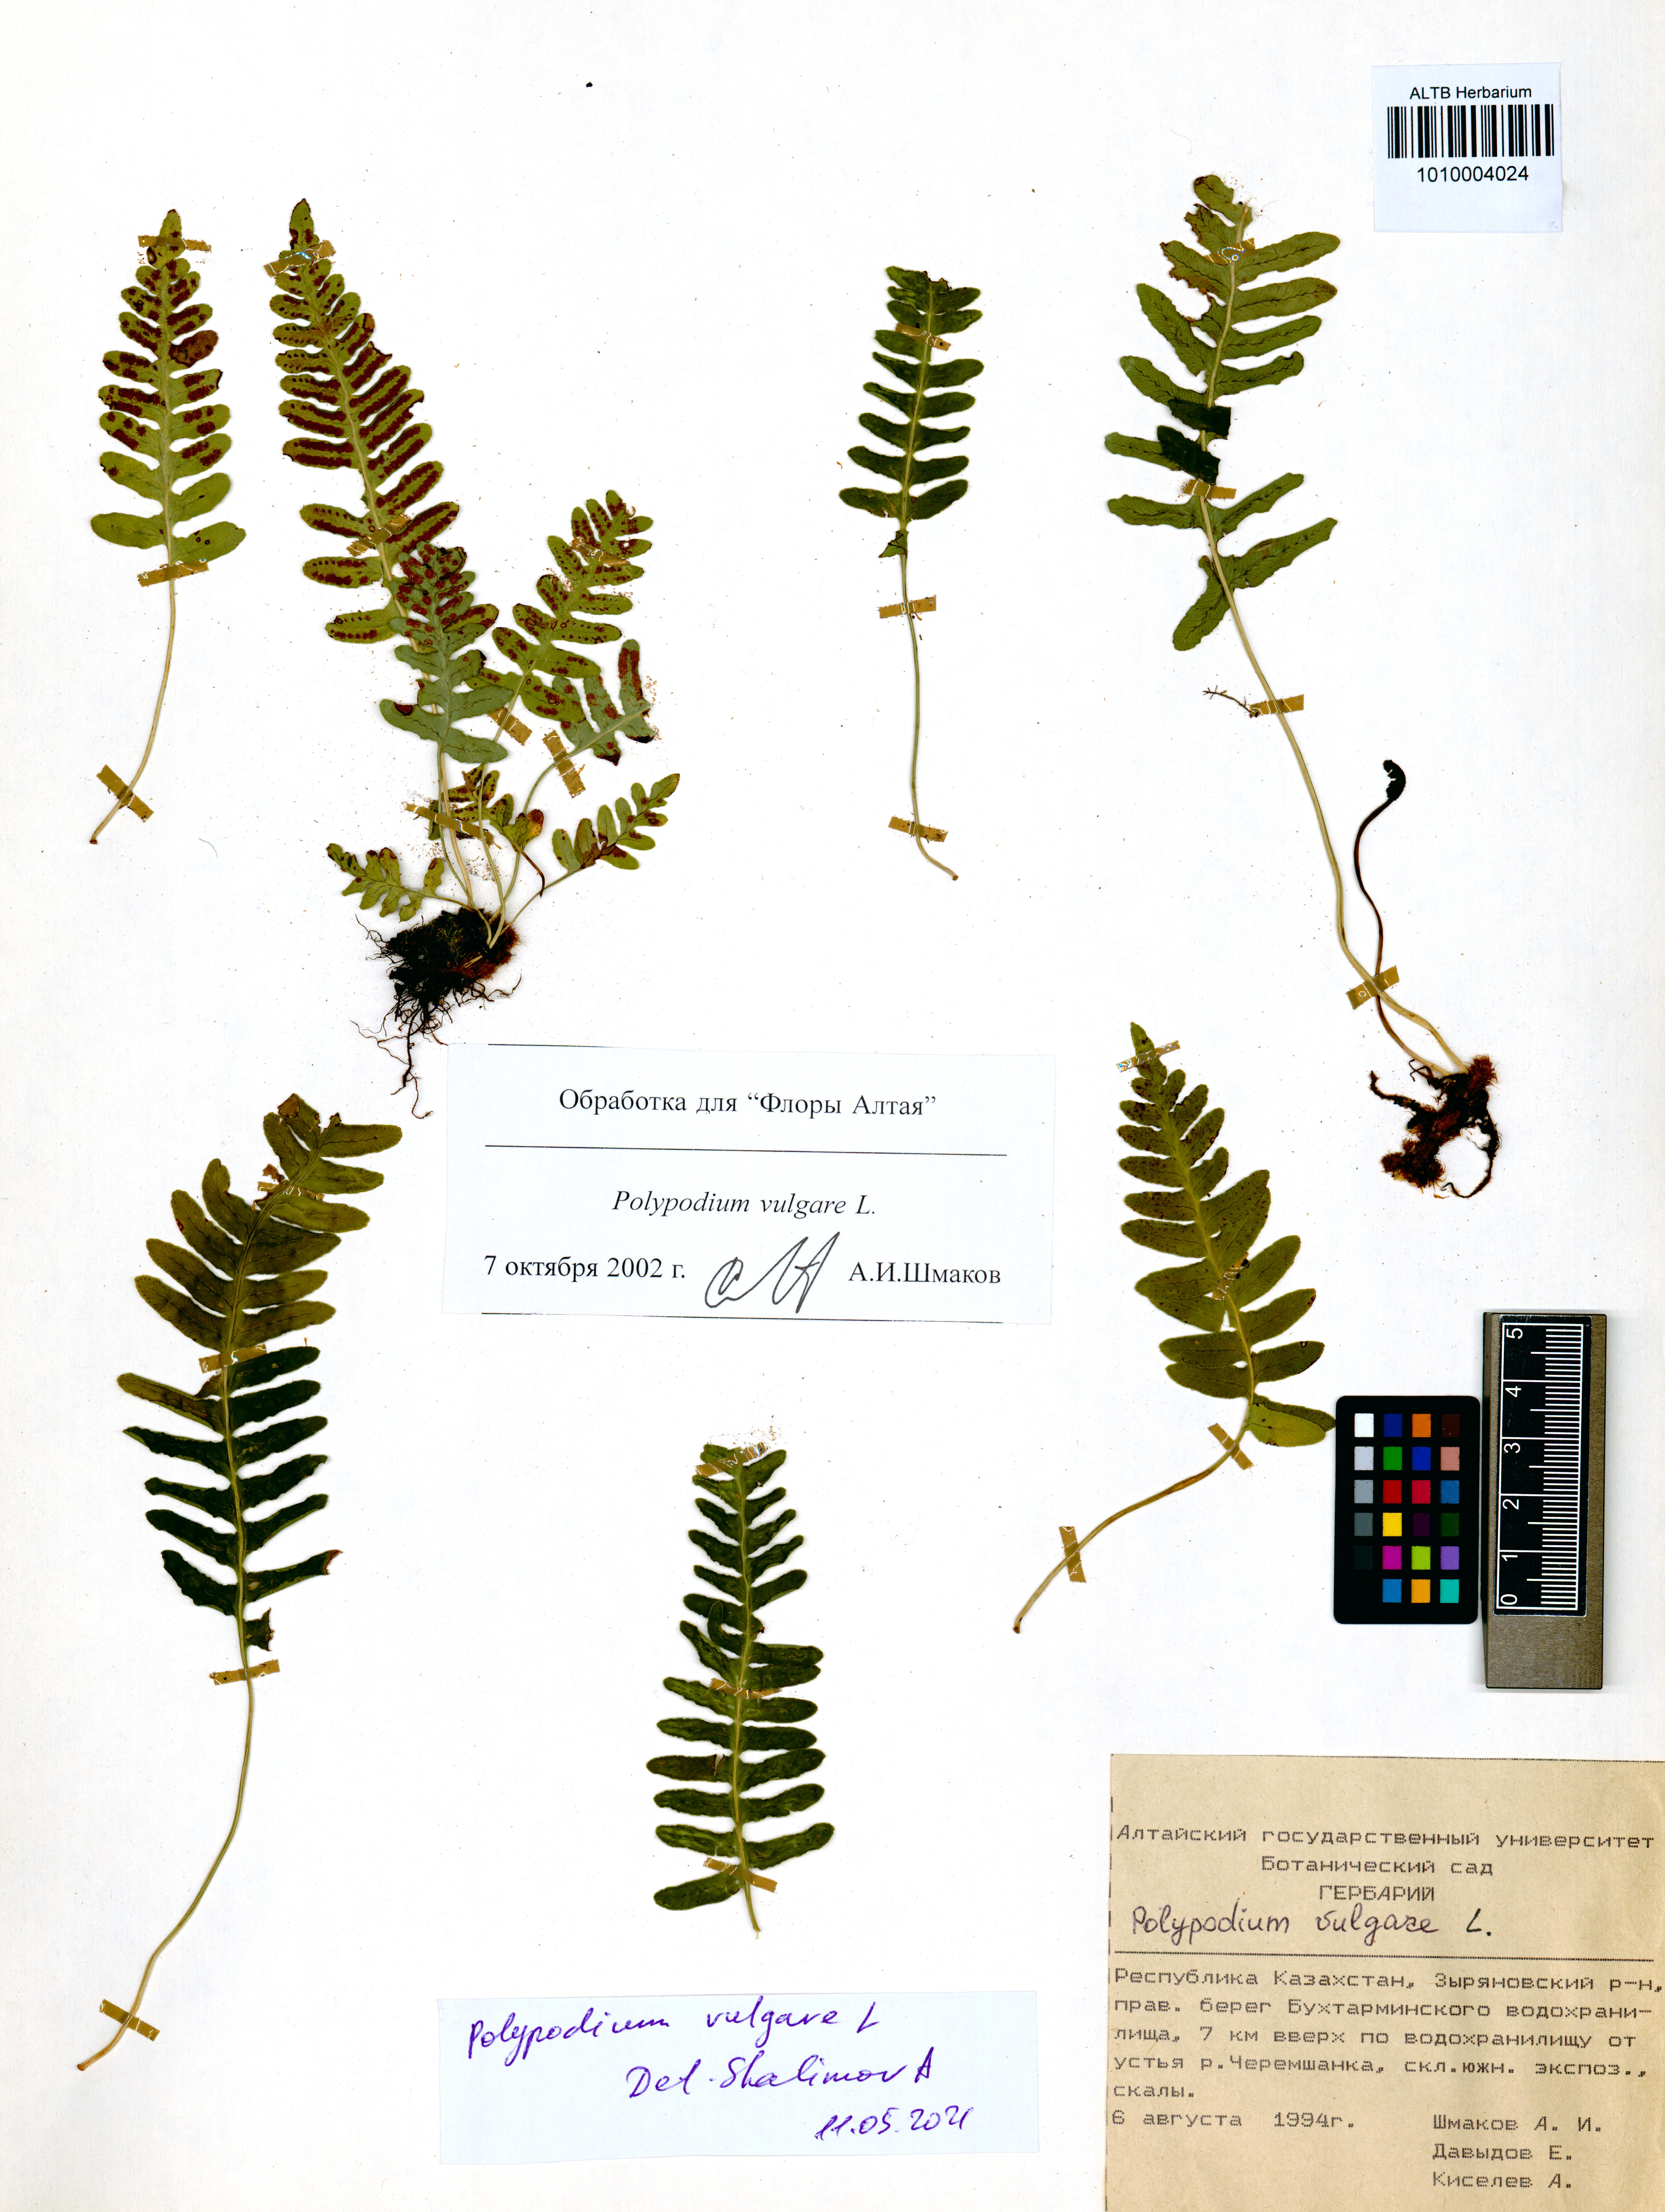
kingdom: Plantae
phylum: Tracheophyta
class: Polypodiopsida
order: Polypodiales
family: Polypodiaceae
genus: Polypodium
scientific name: Polypodium vulgare
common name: Common polypody
